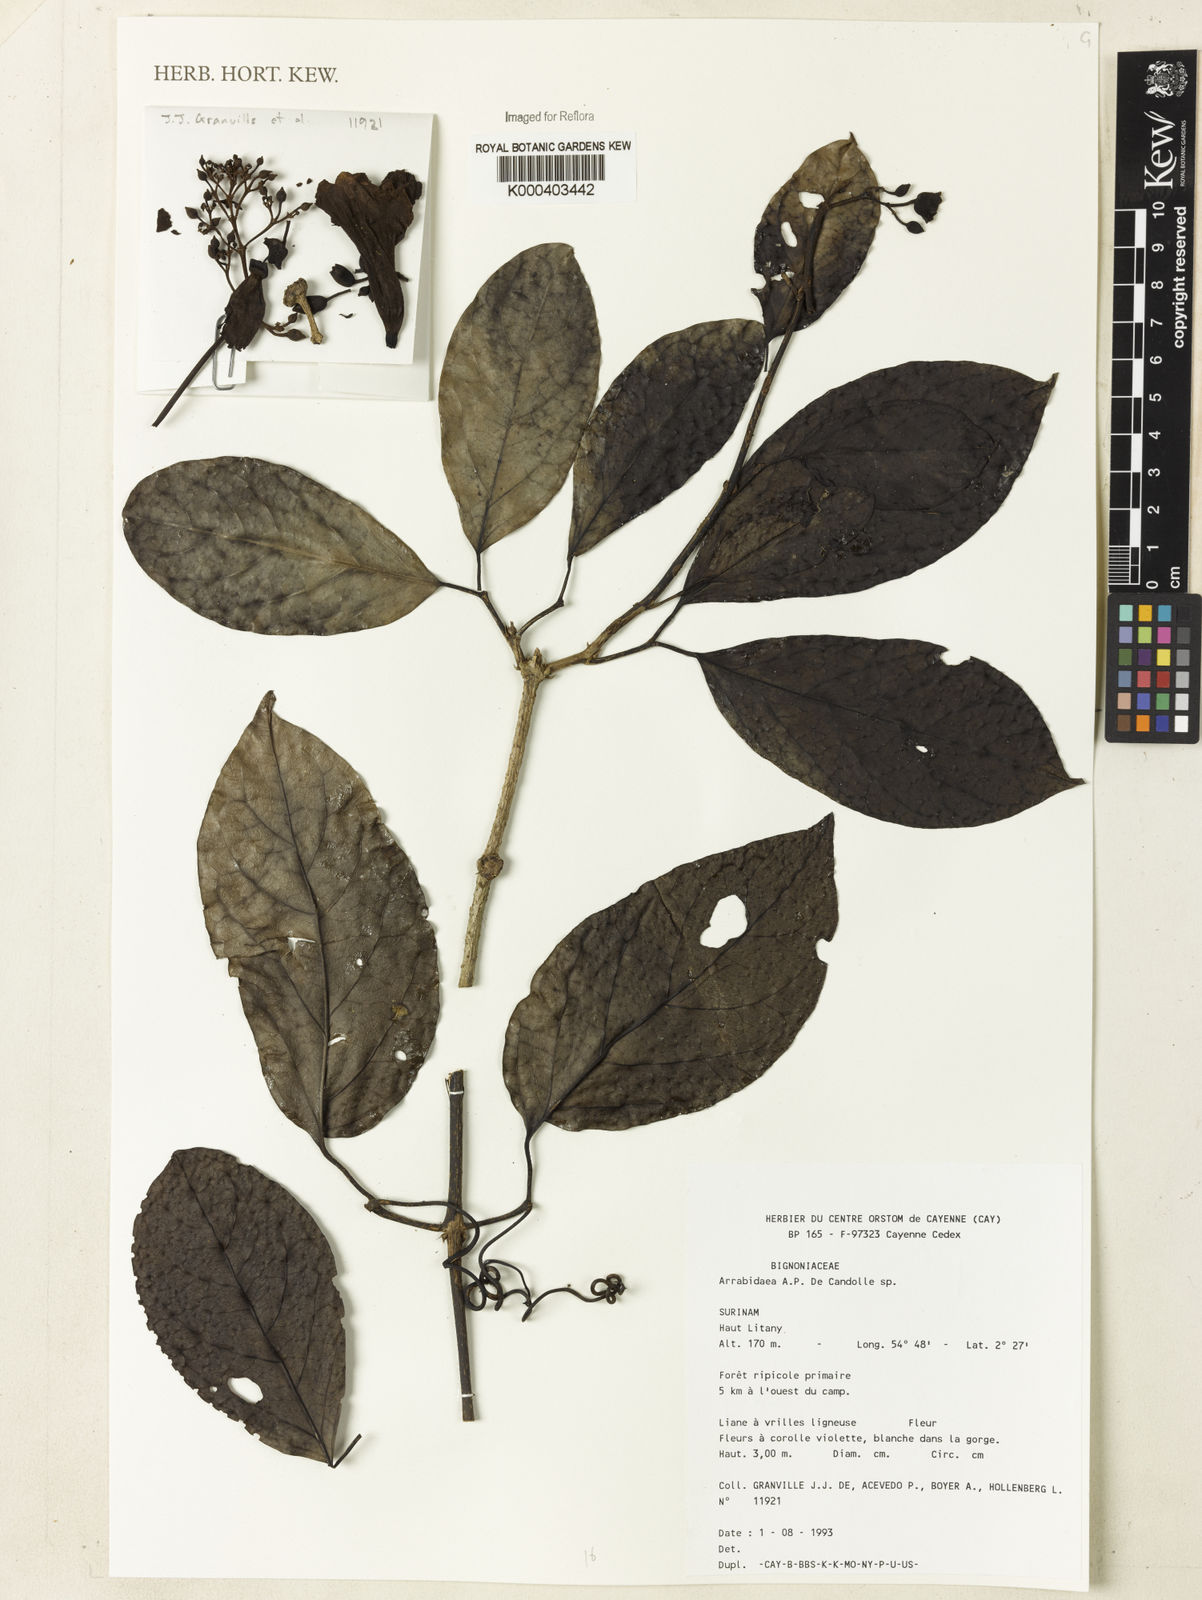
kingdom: Plantae
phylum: Tracheophyta
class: Magnoliopsida
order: Rosales
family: Rhamnaceae
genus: Arrabidaea
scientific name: Arrabidaea
